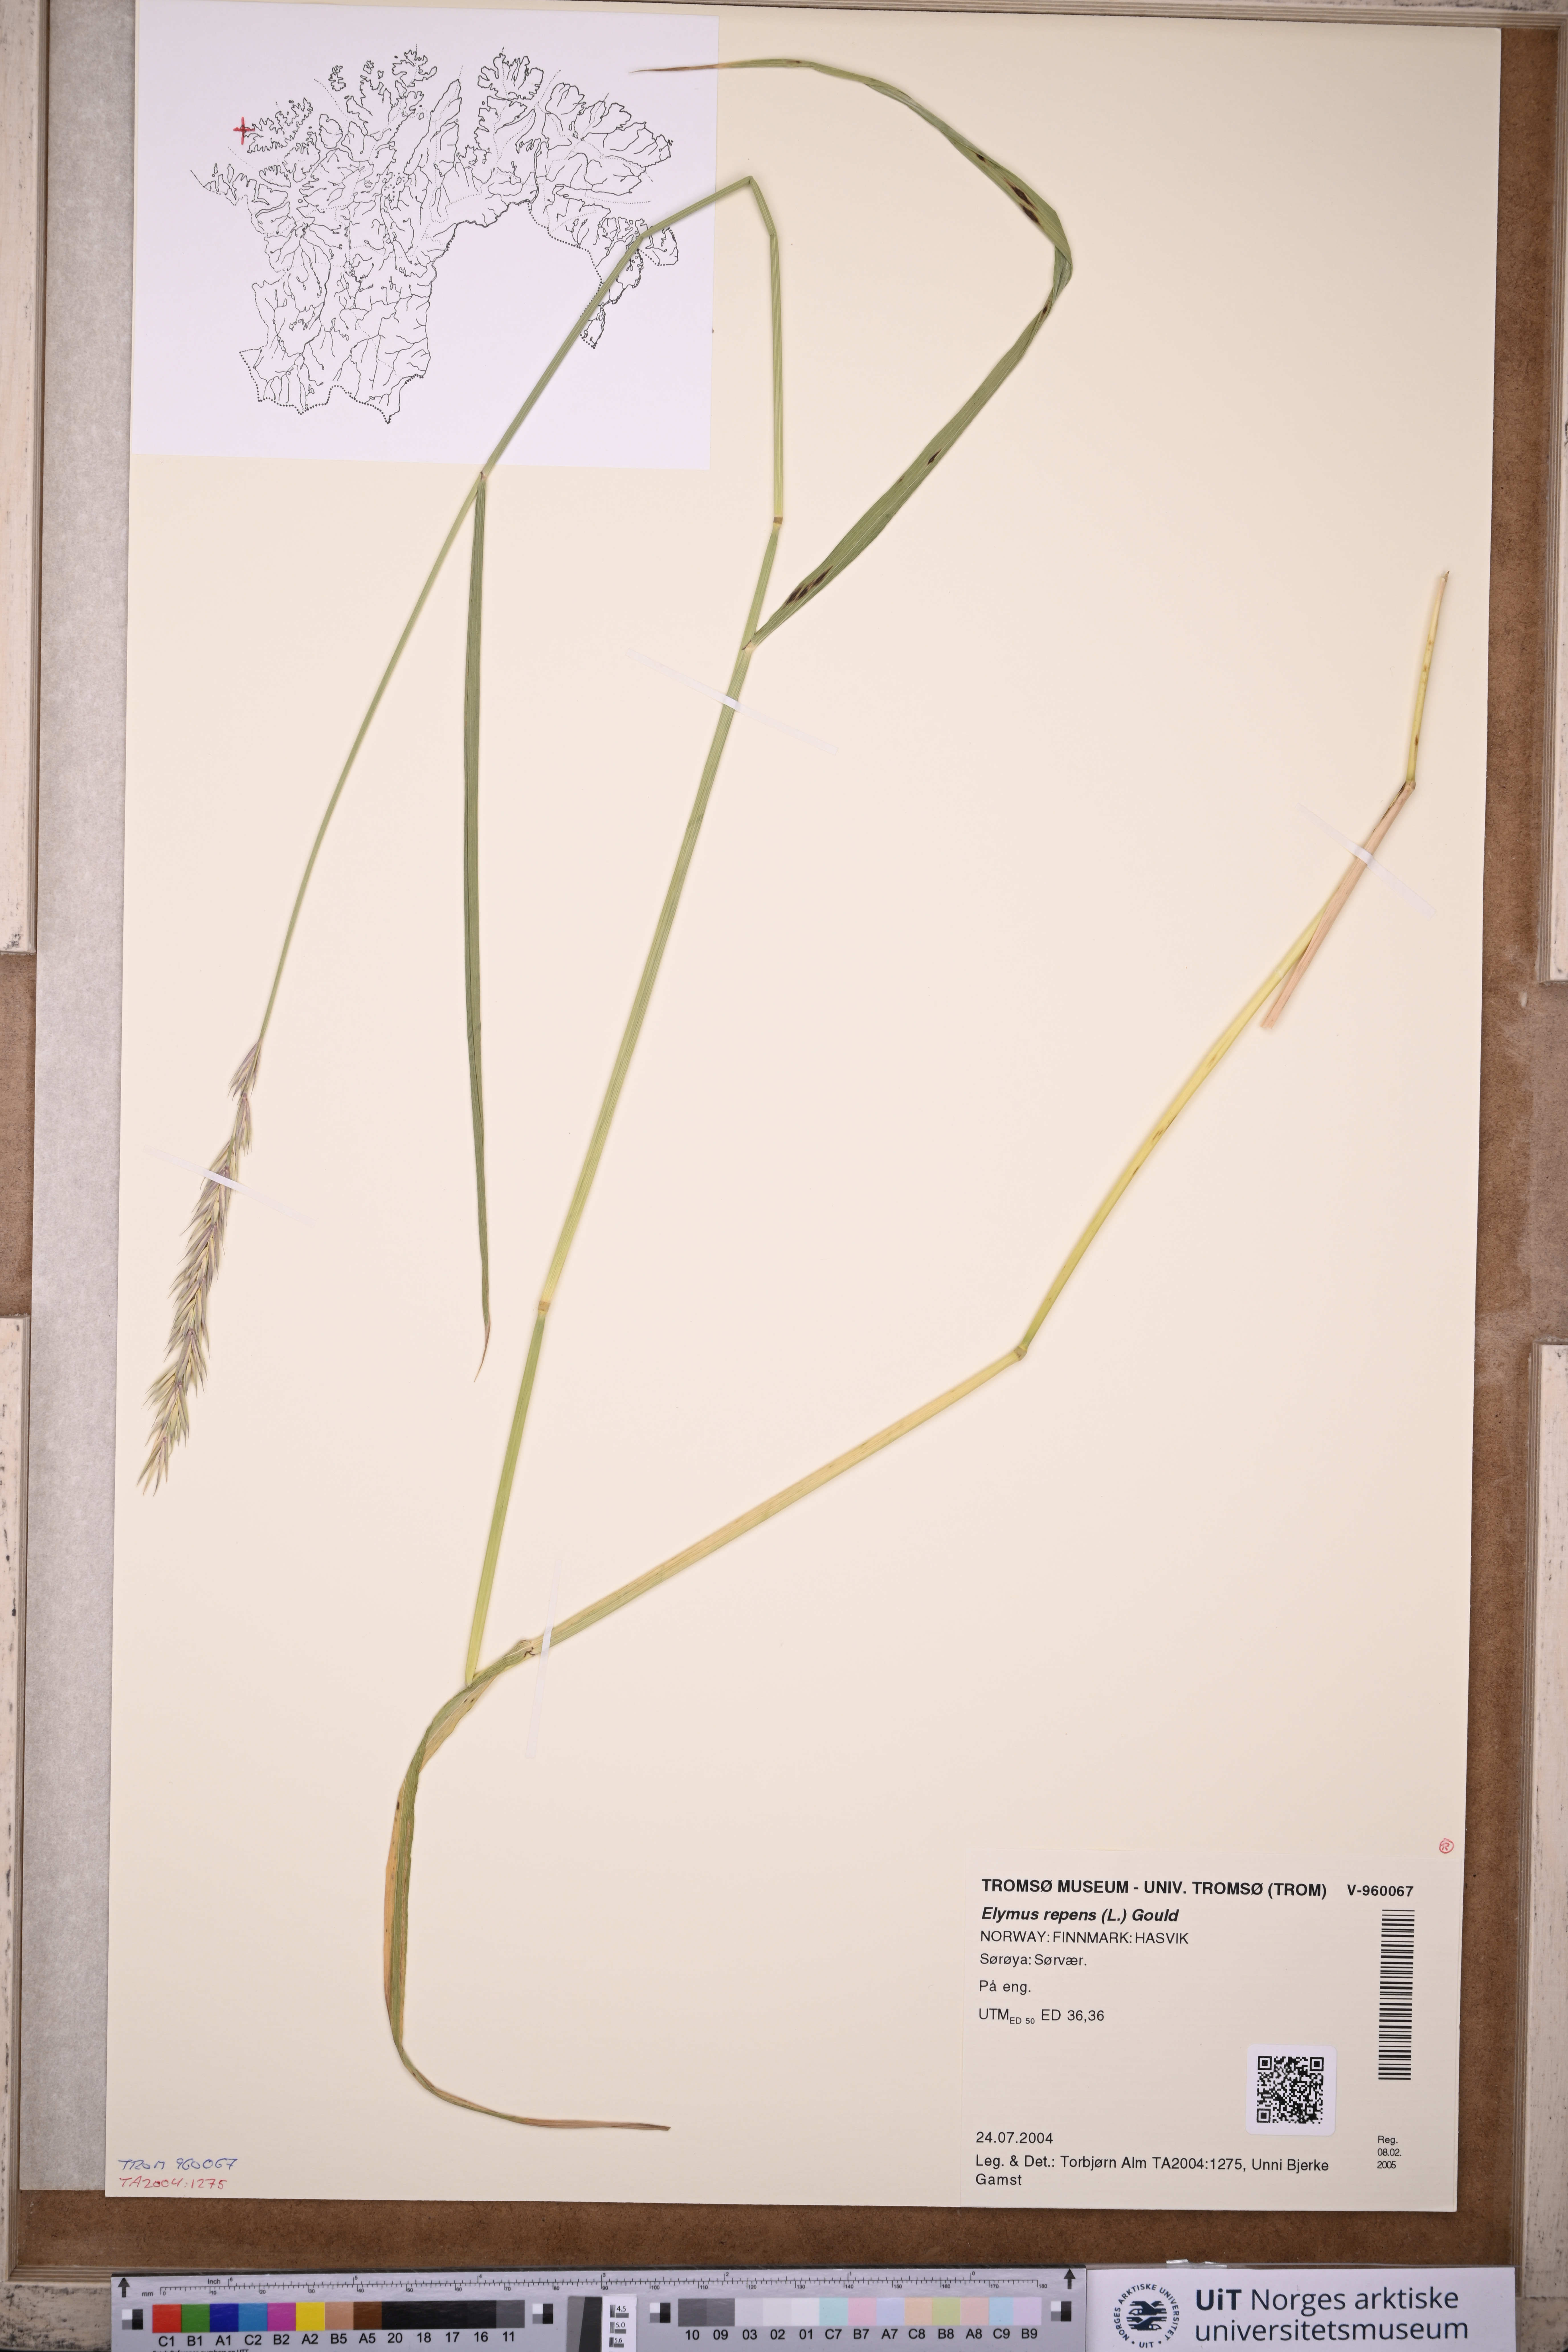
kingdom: Plantae
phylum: Tracheophyta
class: Liliopsida
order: Poales
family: Poaceae
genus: Elymus
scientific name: Elymus repens
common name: Quackgrass
